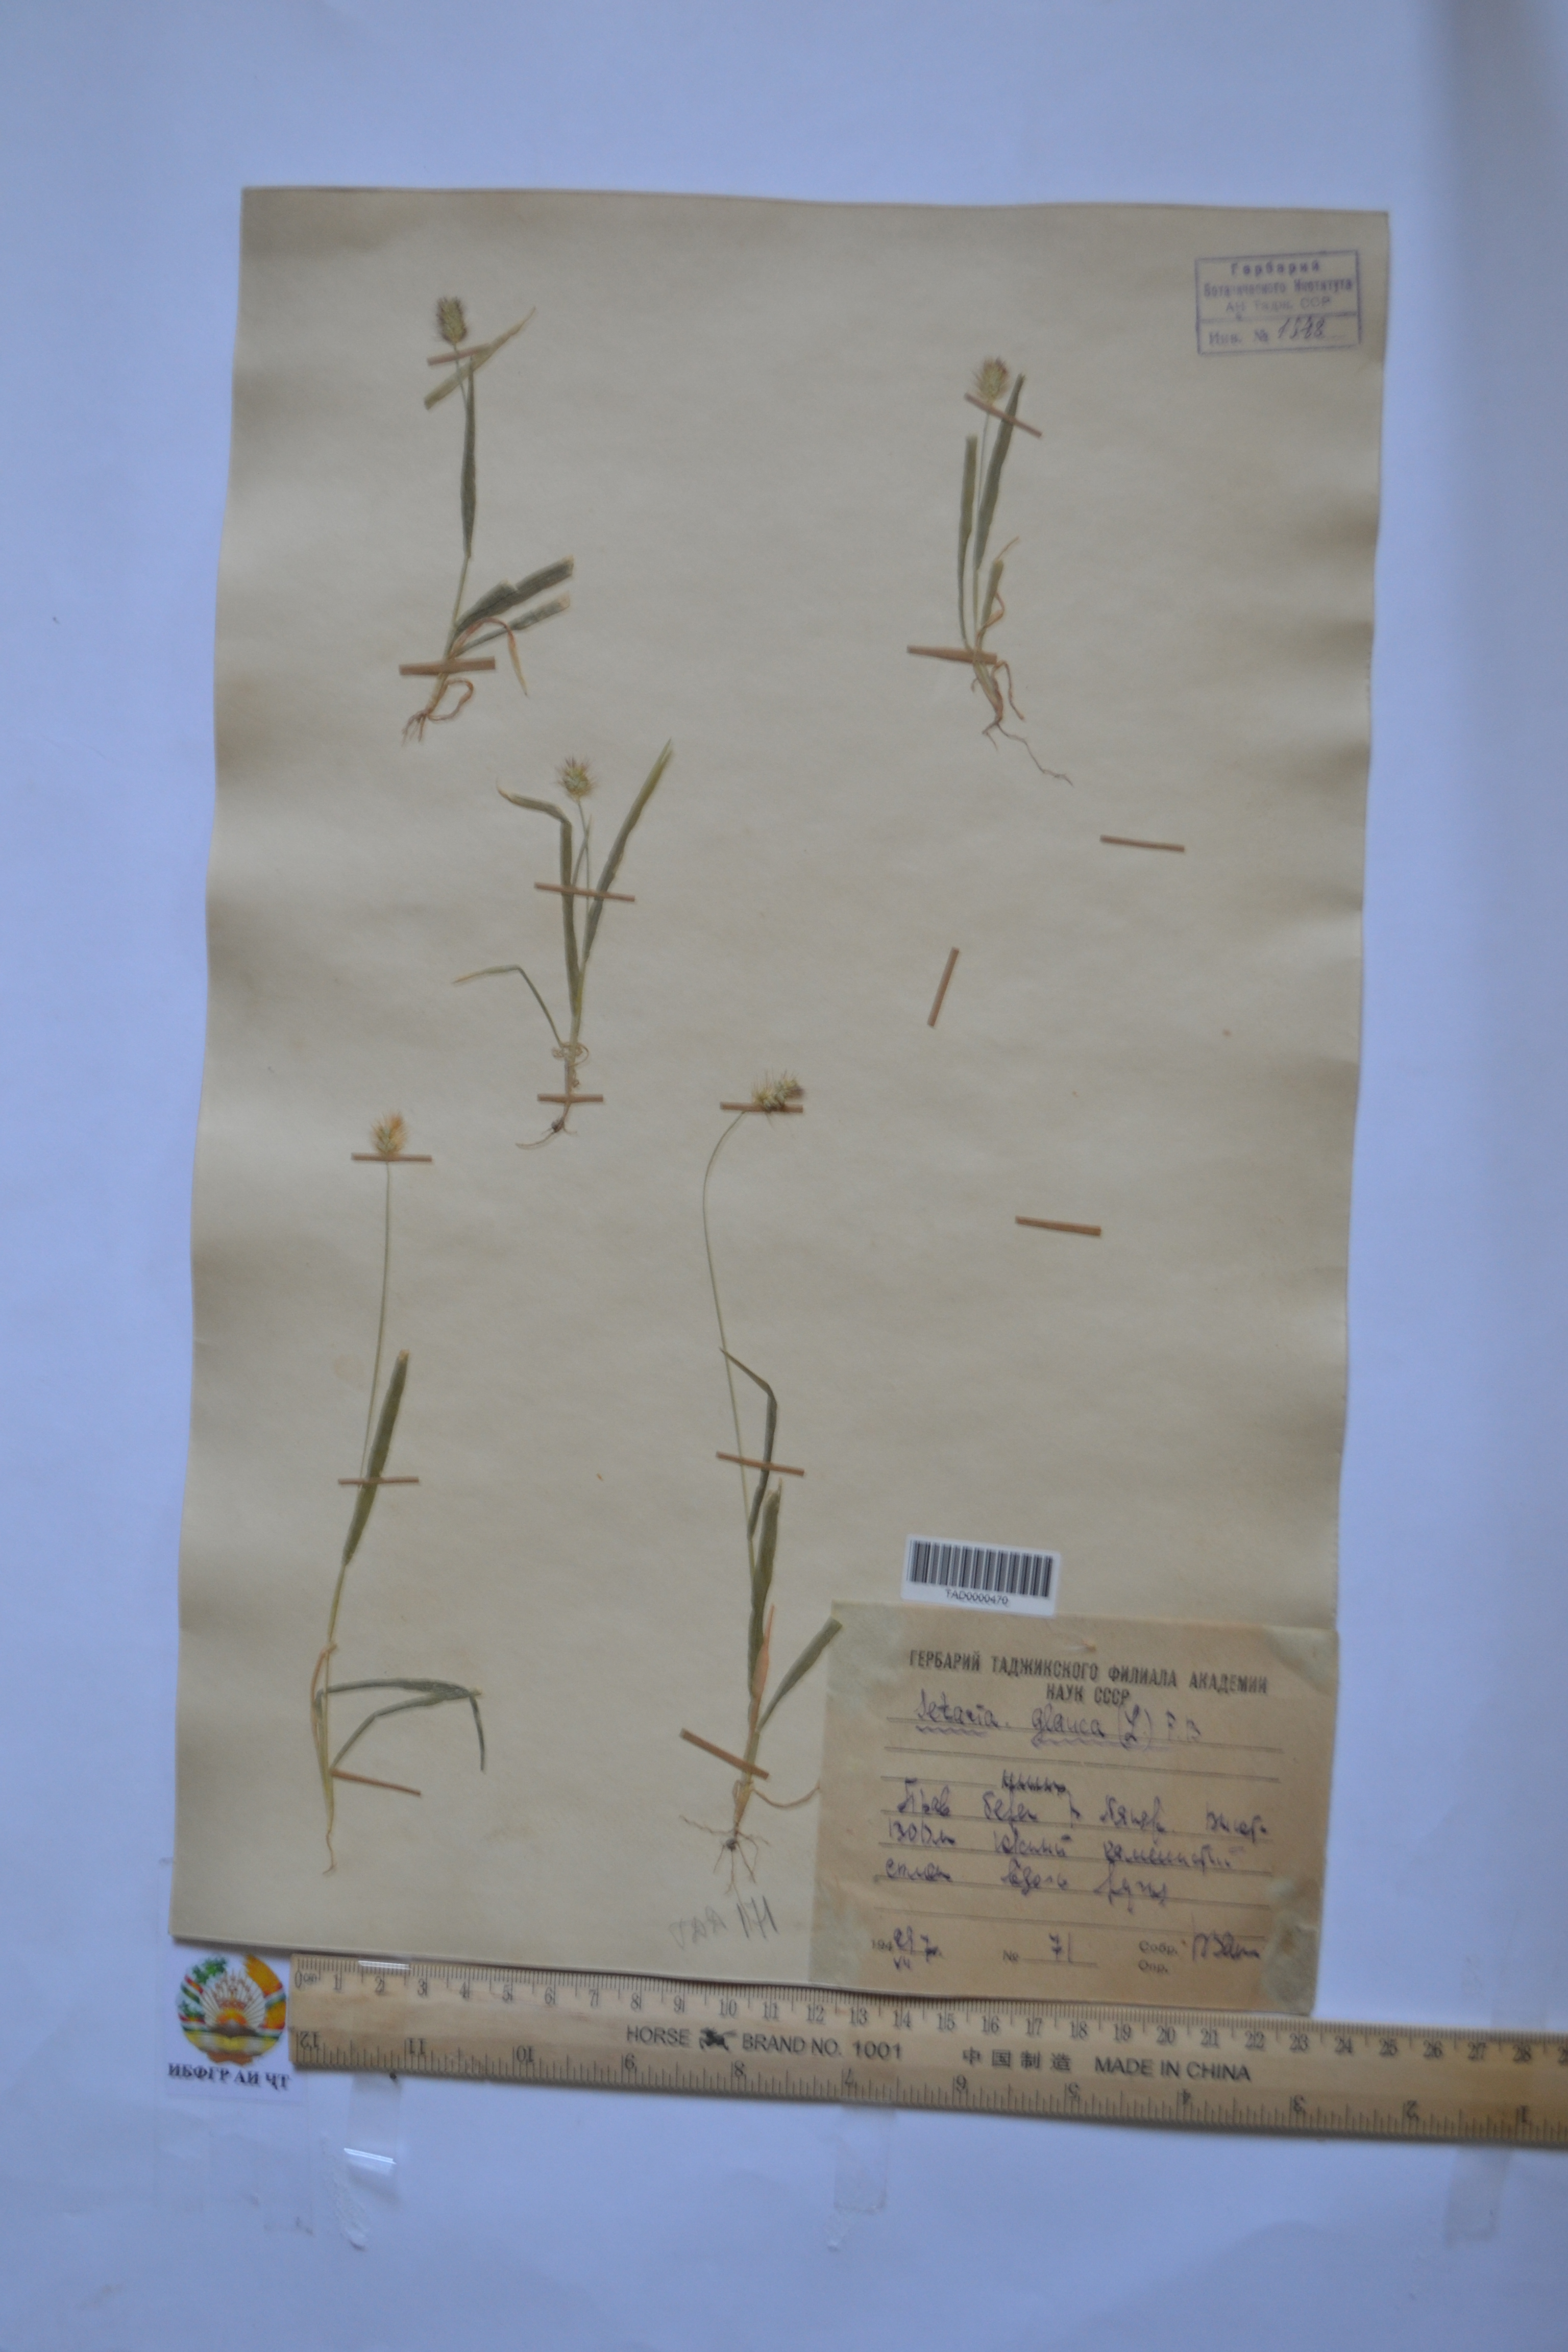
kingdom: Plantae
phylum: Tracheophyta
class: Liliopsida
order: Poales
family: Poaceae
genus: Cenchrus
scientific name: Cenchrus americanus
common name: Pearl millet
